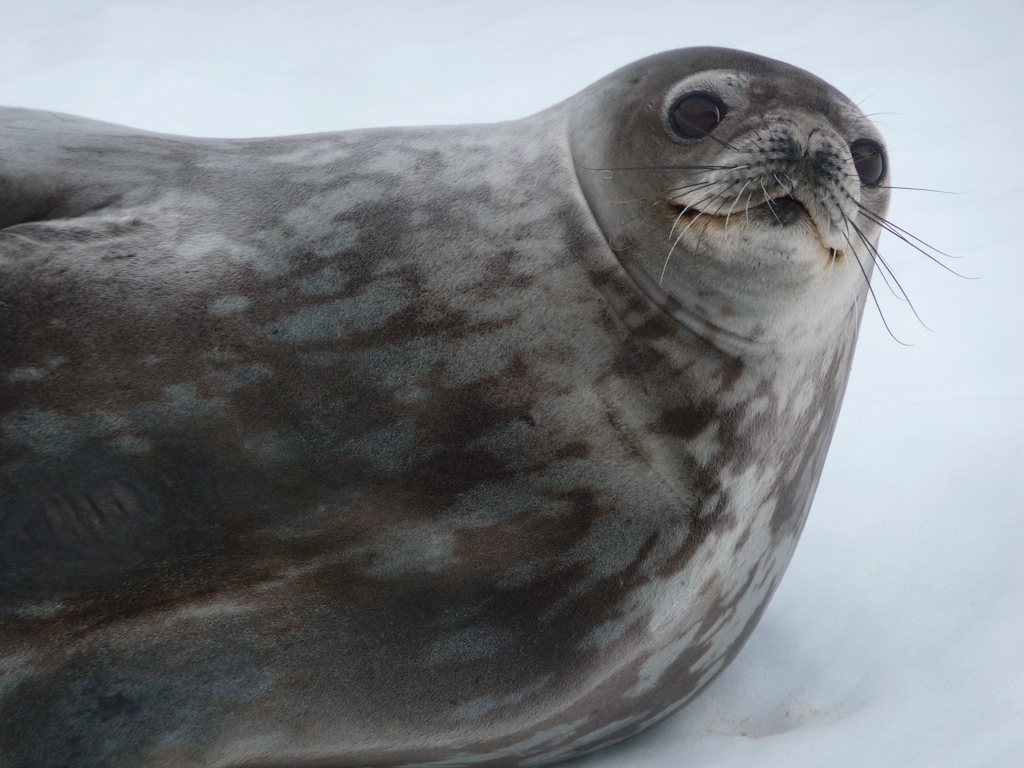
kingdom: Animalia
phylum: Chordata
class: Mammalia
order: Carnivora
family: Phocidae
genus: Leptonychotes
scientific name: Leptonychotes weddellii
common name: Weddell Seal
